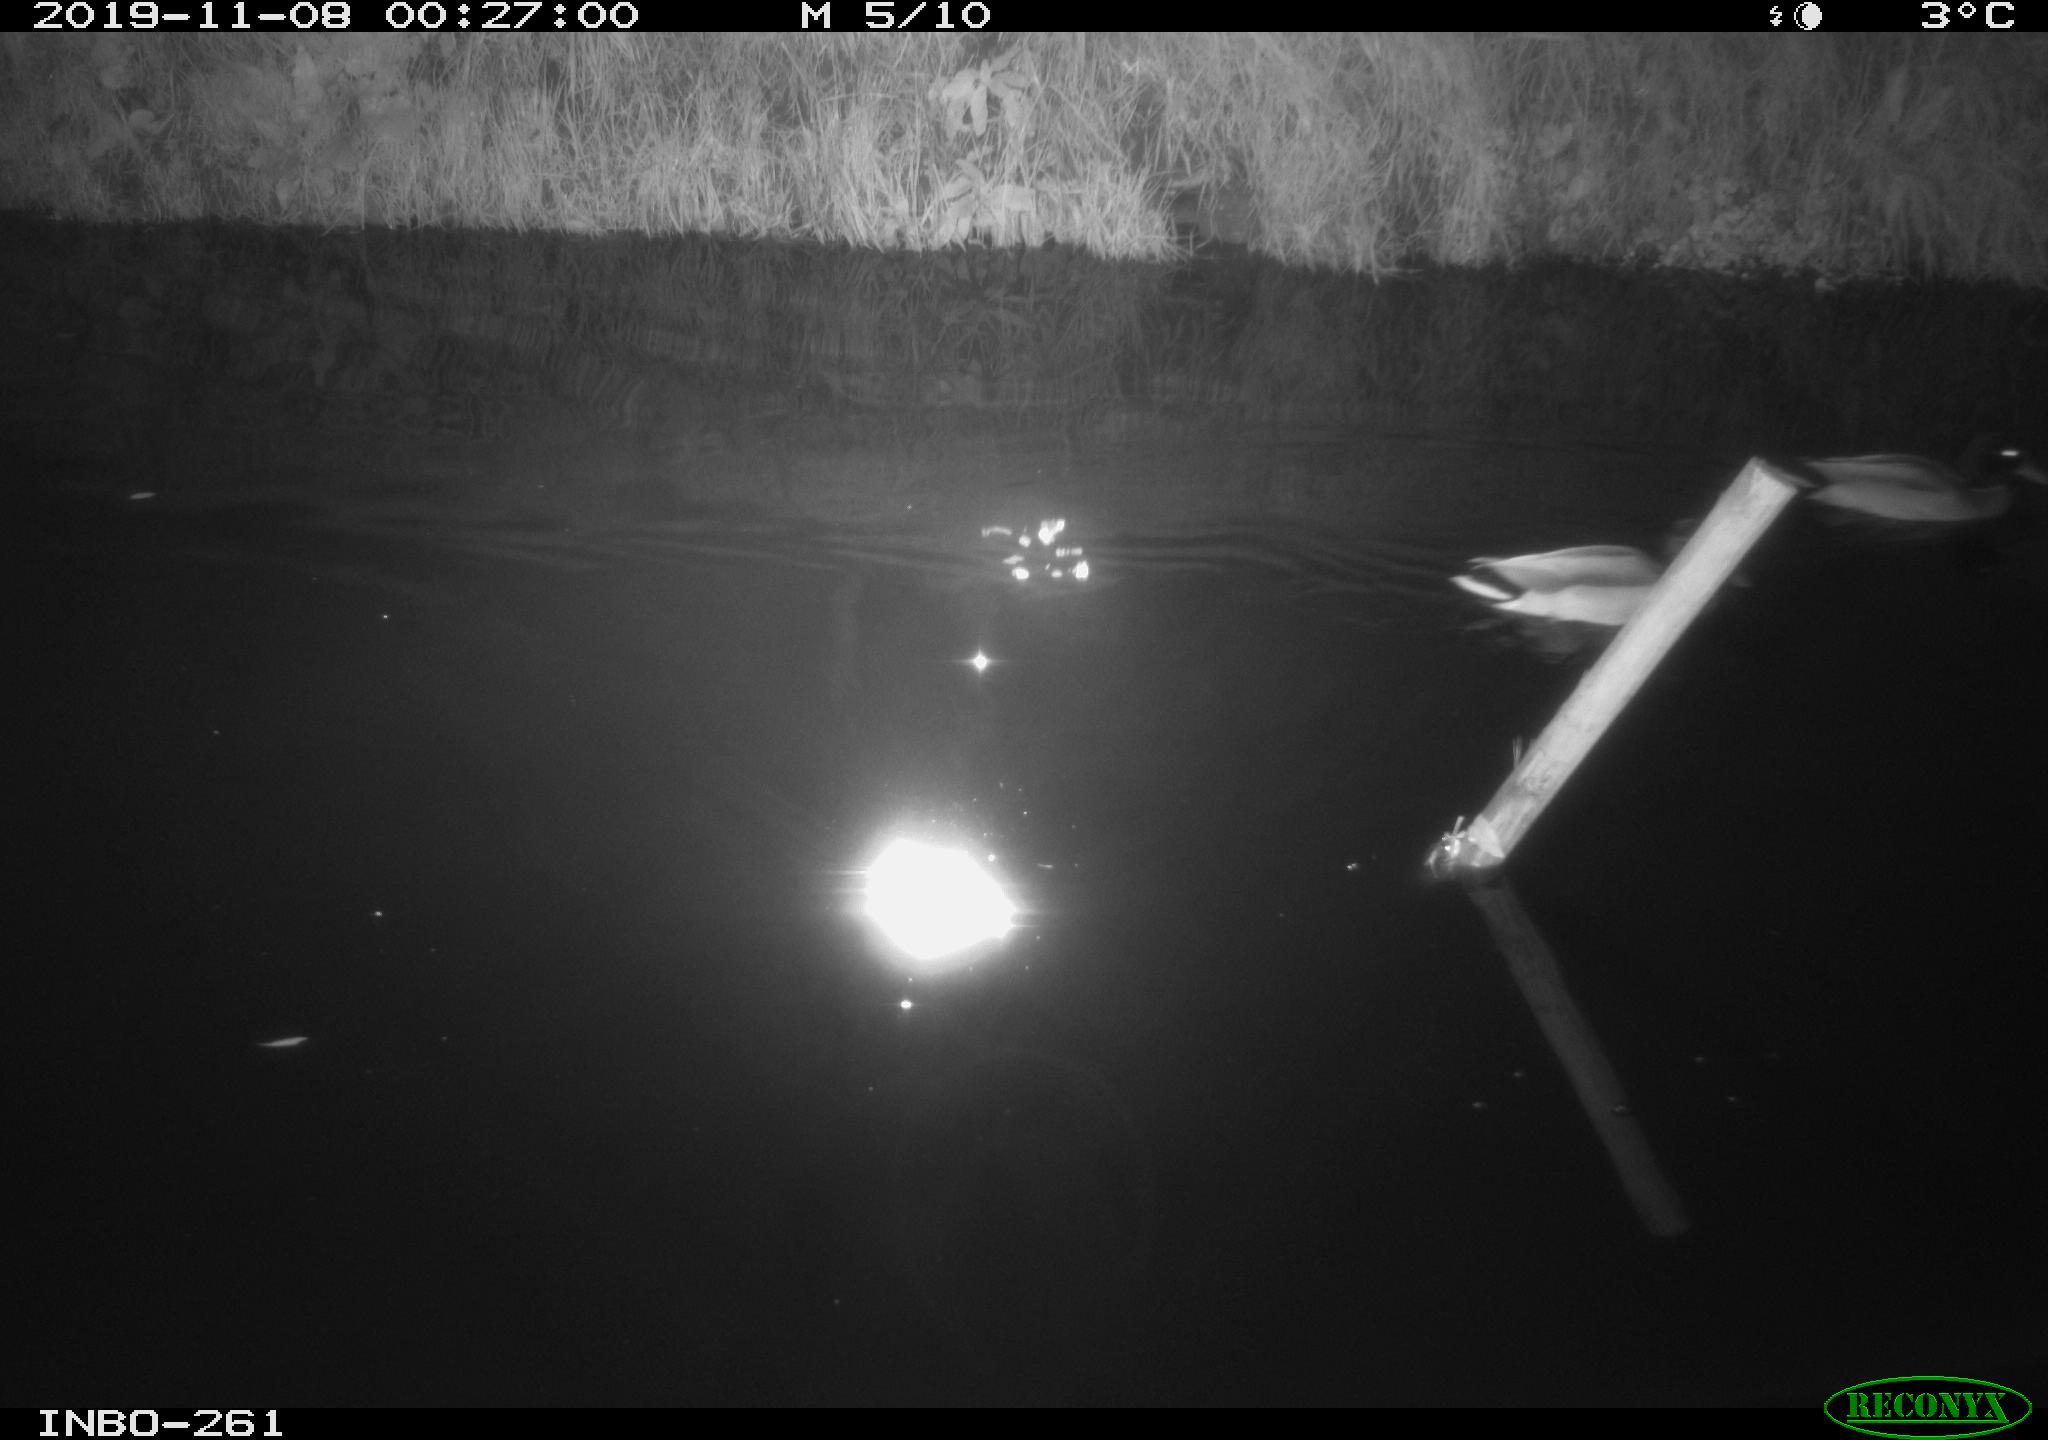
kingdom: Animalia
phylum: Chordata
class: Aves
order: Anseriformes
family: Anatidae
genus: Anas
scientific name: Anas platyrhynchos
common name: Mallard
